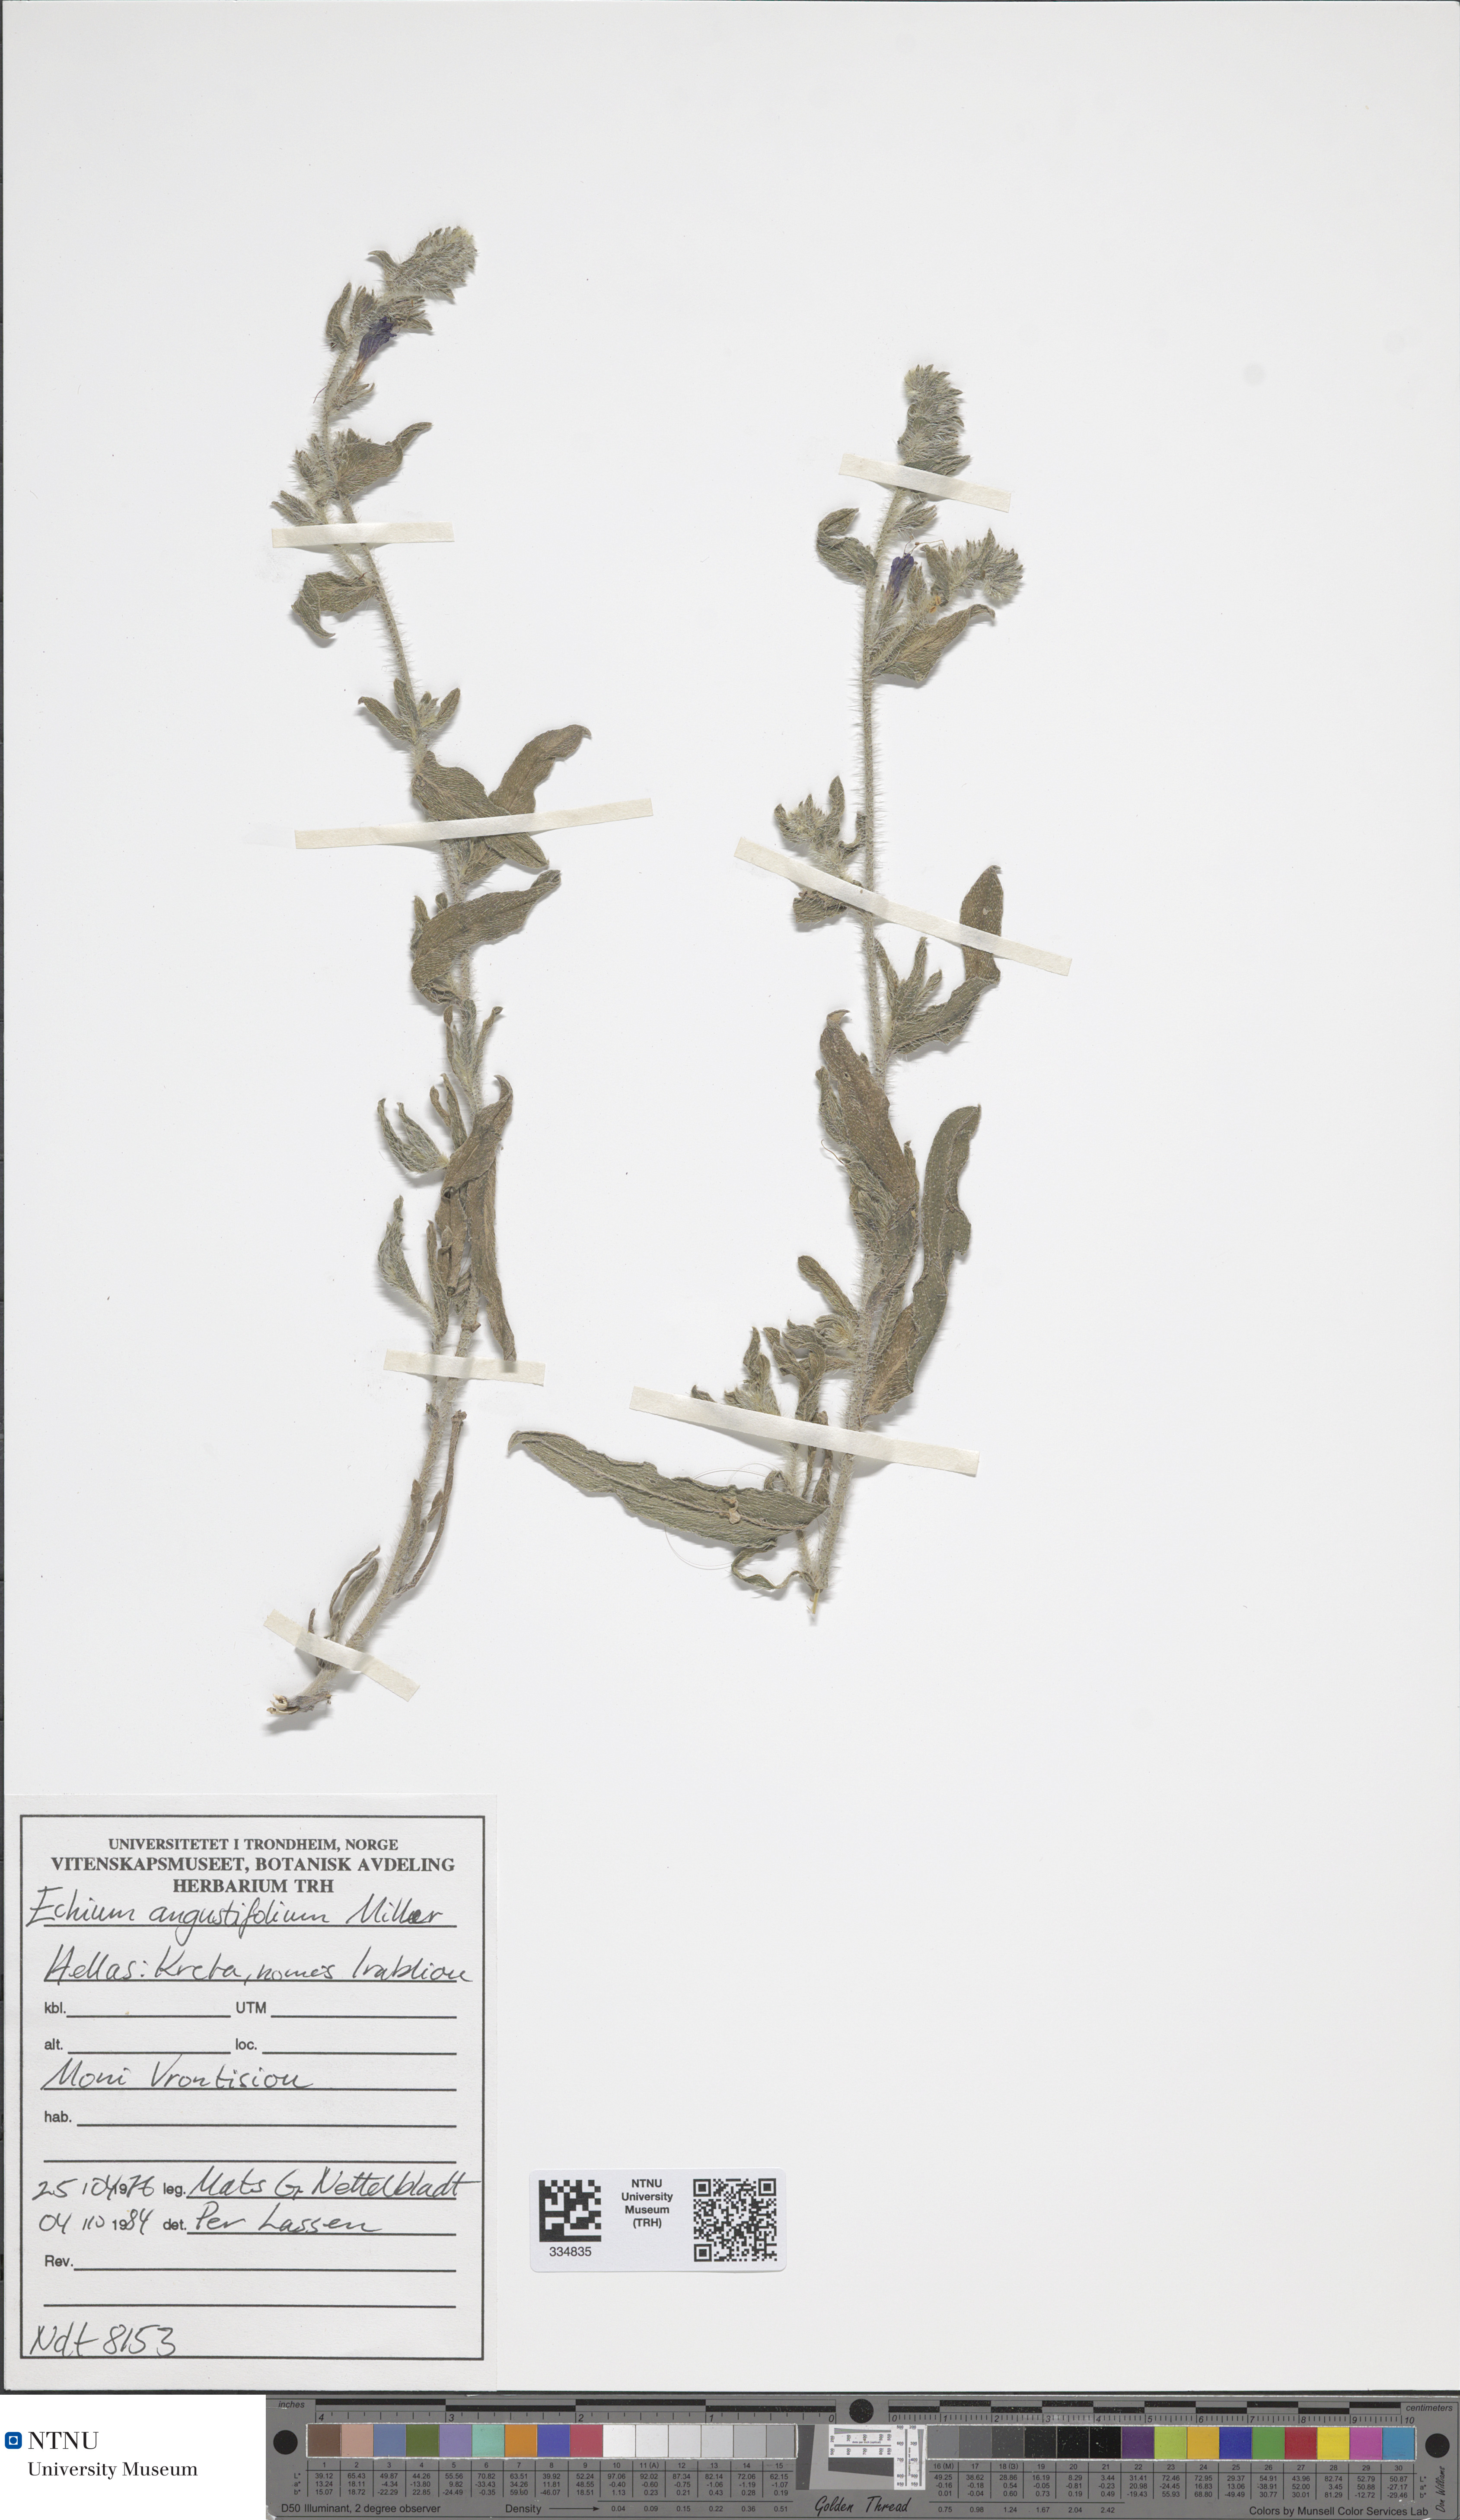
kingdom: Plantae
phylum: Tracheophyta
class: Magnoliopsida
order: Boraginales
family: Boraginaceae
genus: Echium
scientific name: Echium angustifolium
